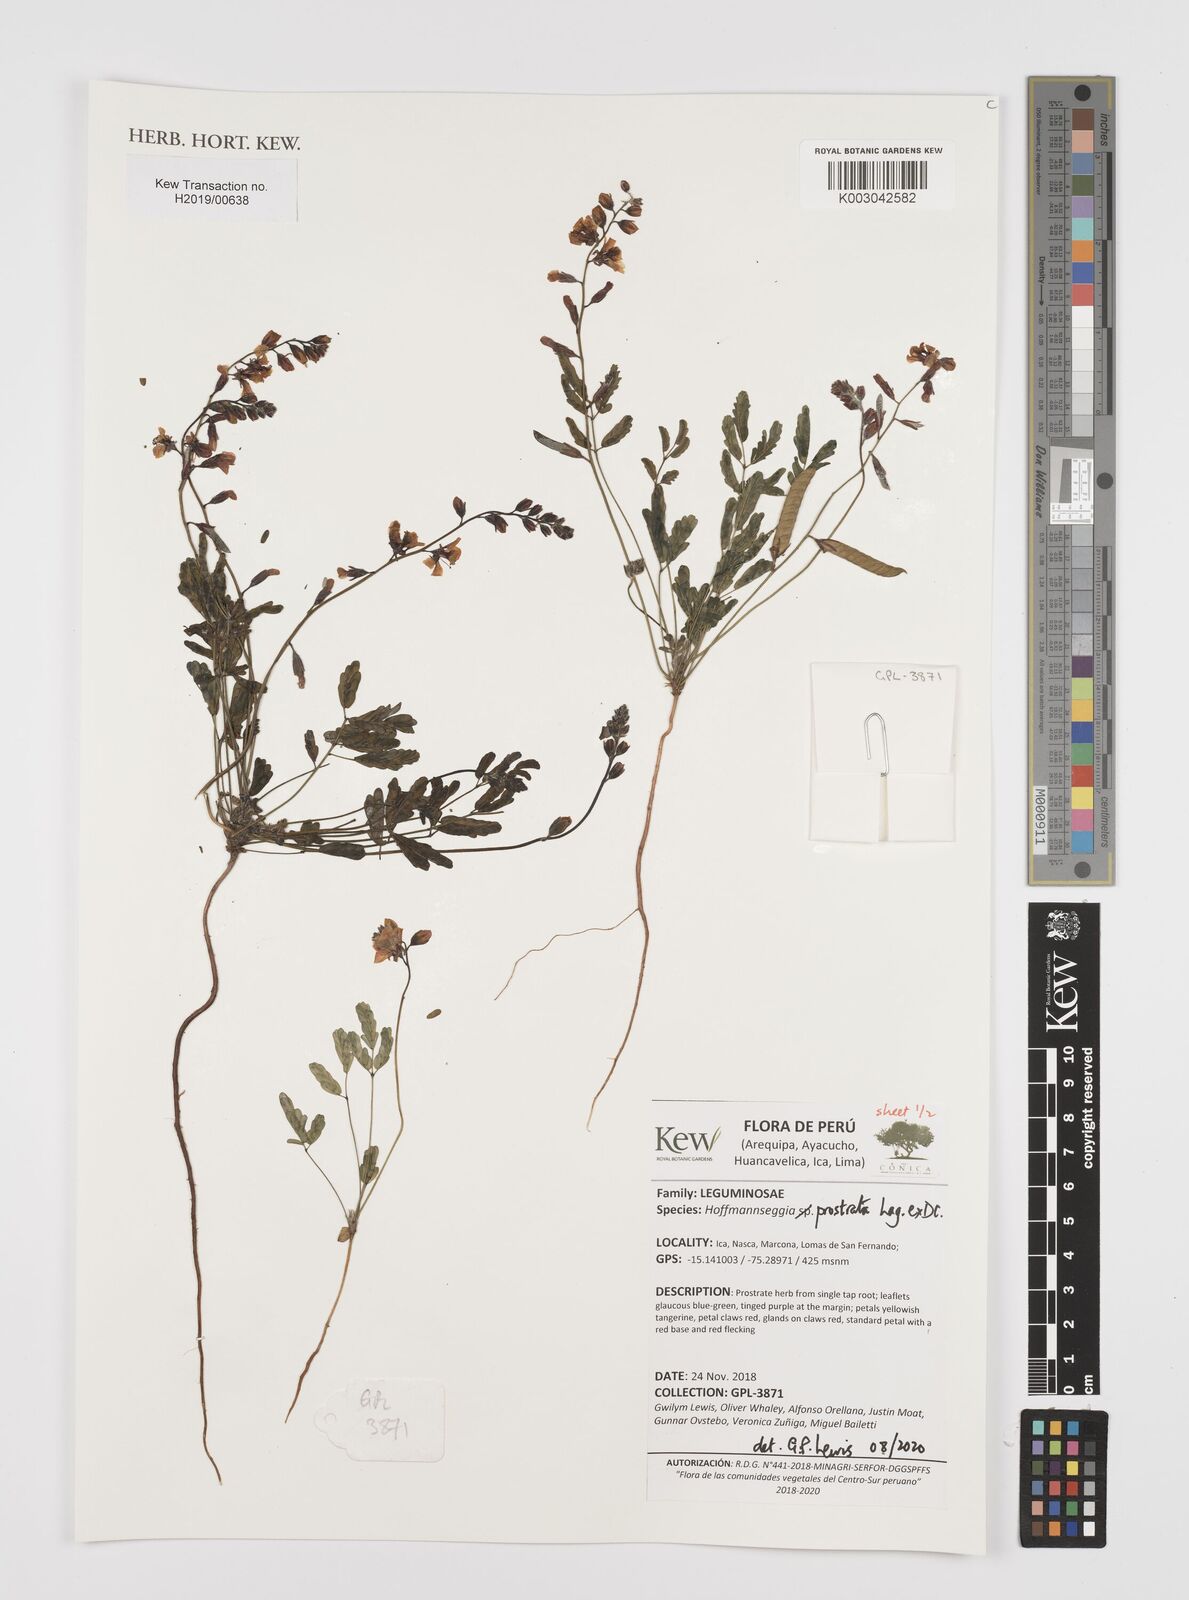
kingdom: Plantae
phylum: Tracheophyta
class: Magnoliopsida
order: Fabales
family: Fabaceae
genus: Hoffmannseggia
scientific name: Hoffmannseggia prostrata
